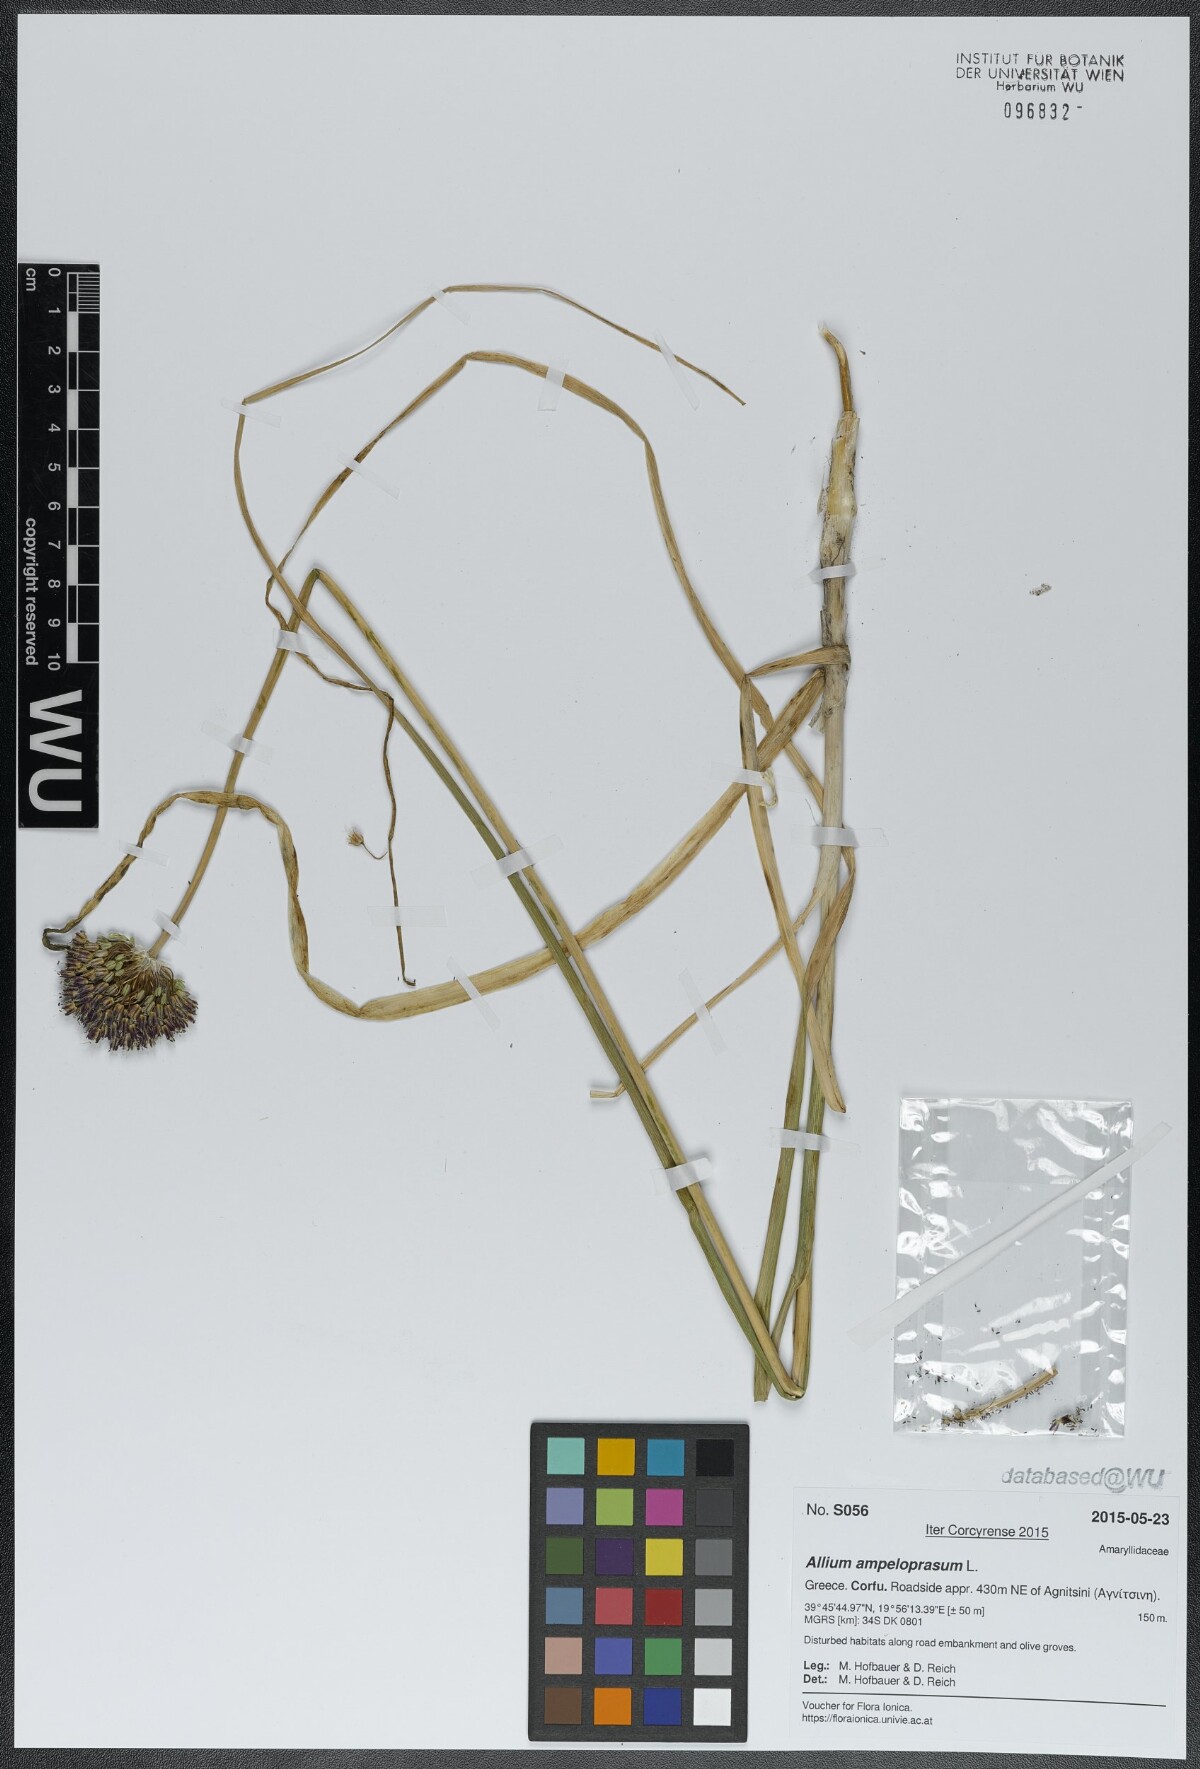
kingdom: Plantae
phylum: Tracheophyta
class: Liliopsida
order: Asparagales
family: Amaryllidaceae
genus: Allium
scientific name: Allium ampeloprasum
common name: Wild leek
